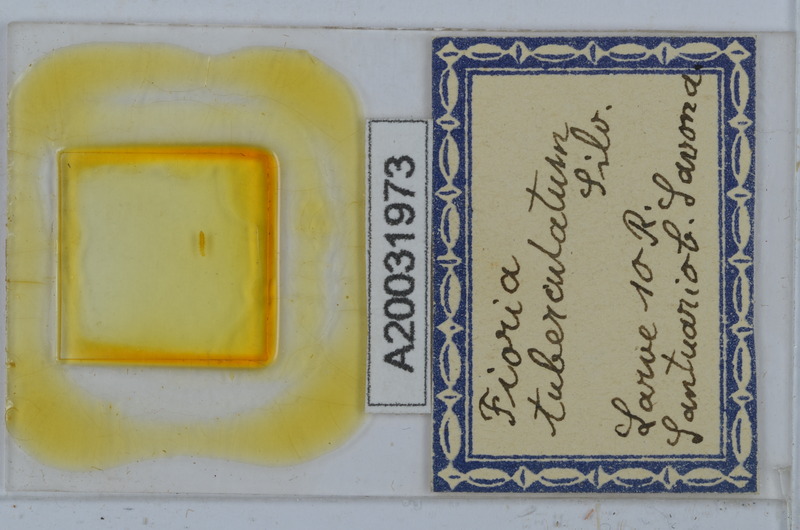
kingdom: Animalia
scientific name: Animalia
